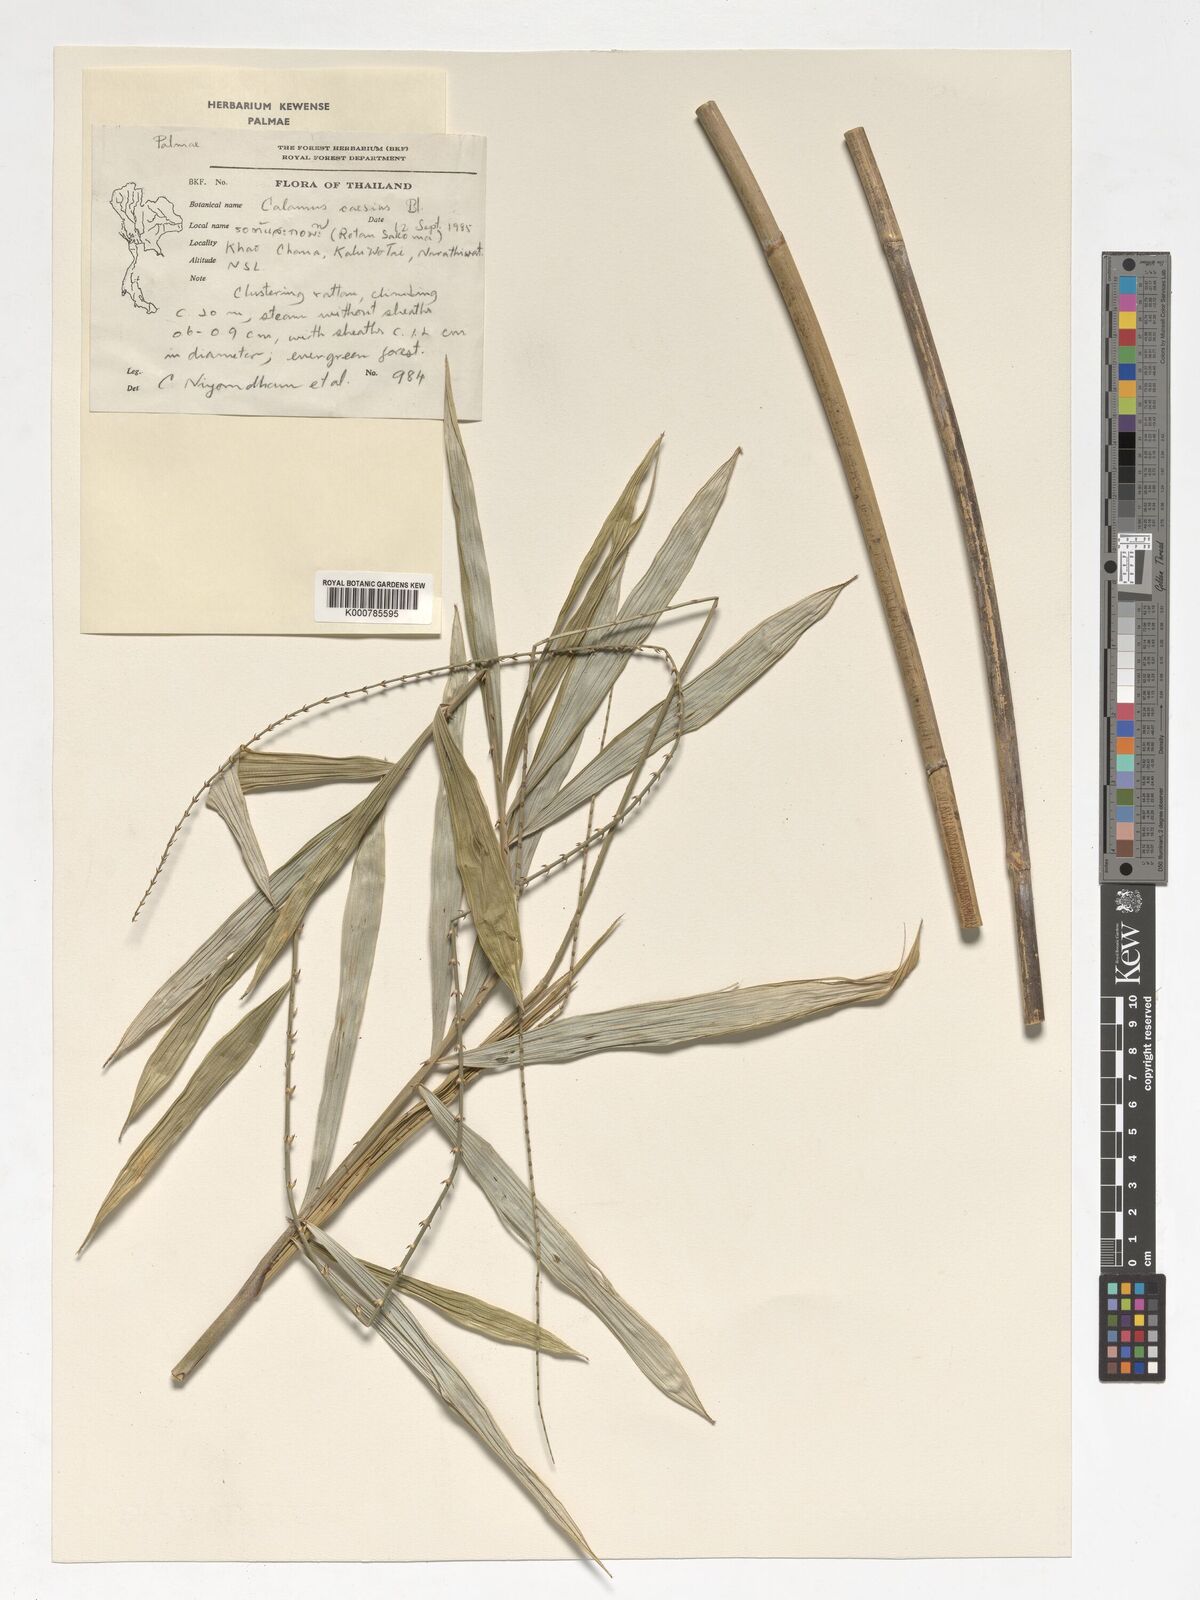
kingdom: Plantae
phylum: Tracheophyta
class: Liliopsida
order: Arecales
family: Arecaceae
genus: Calamus
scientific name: Calamus caesius
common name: Rattan palm
